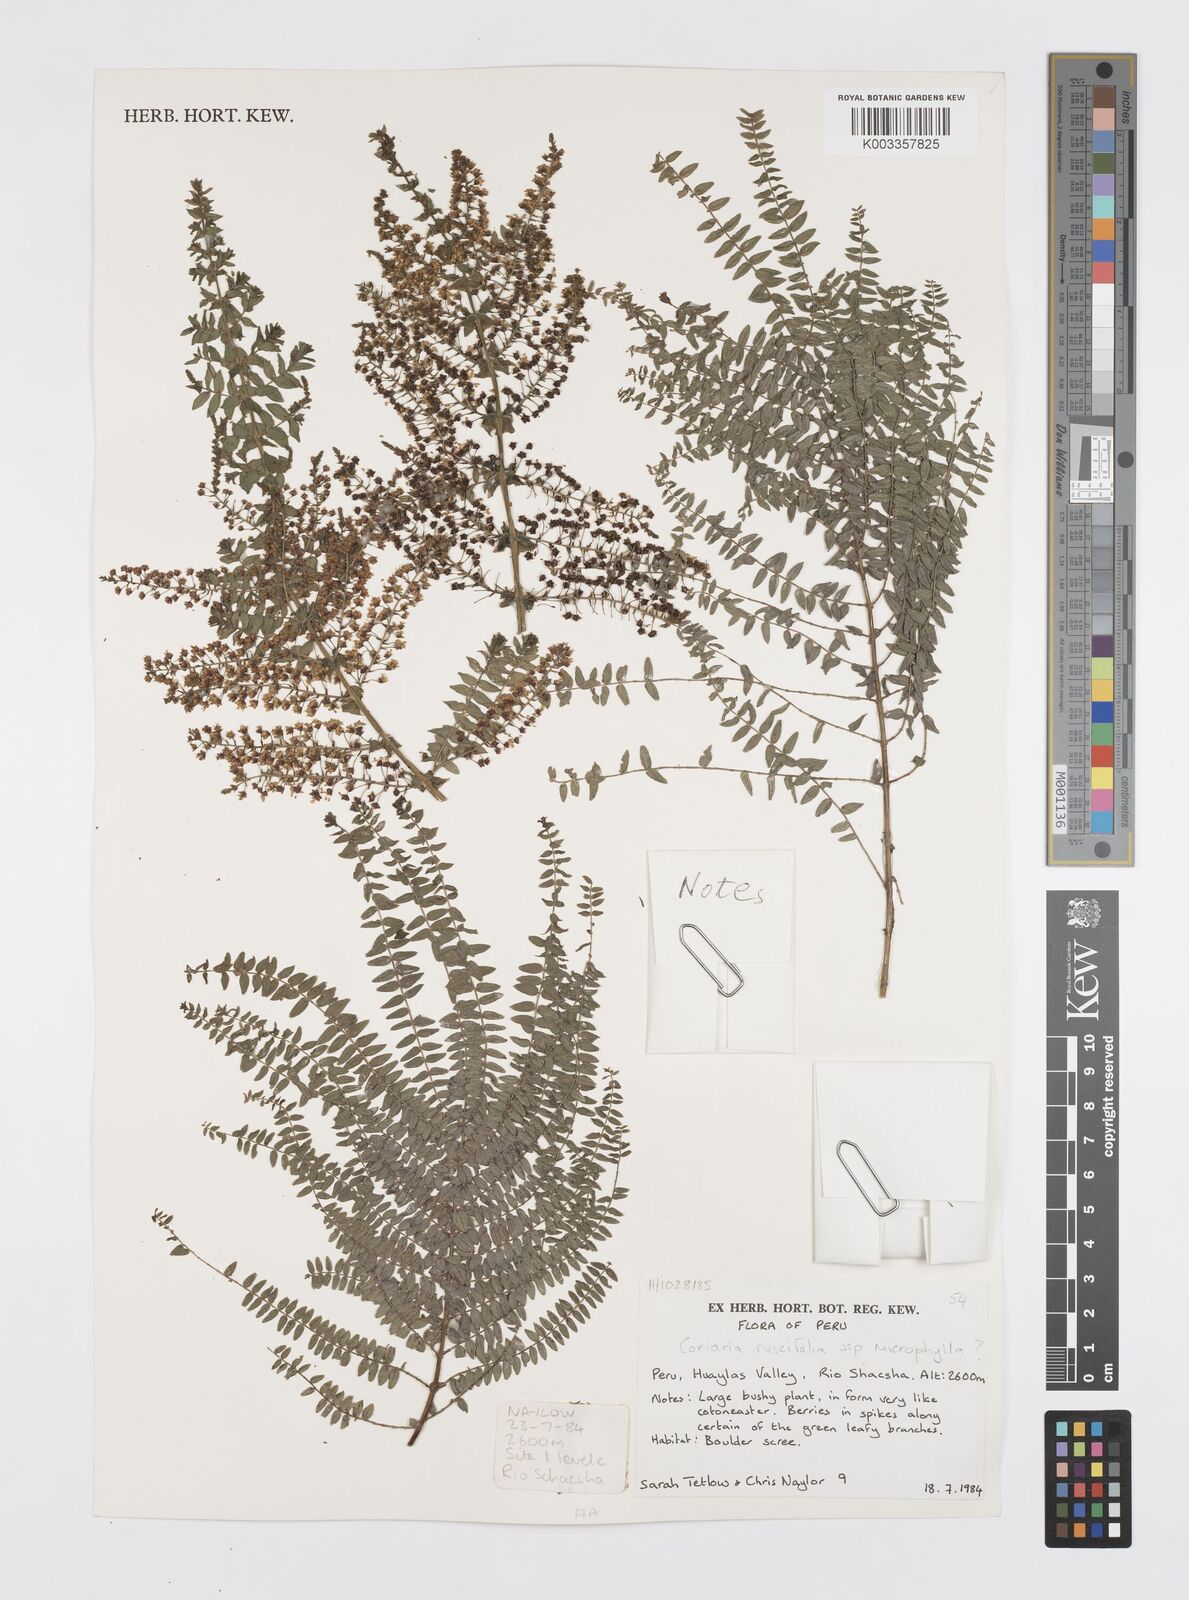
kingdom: Plantae
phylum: Tracheophyta
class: Magnoliopsida
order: Cucurbitales
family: Coriariaceae
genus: Coriaria
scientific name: Coriaria microphylla
